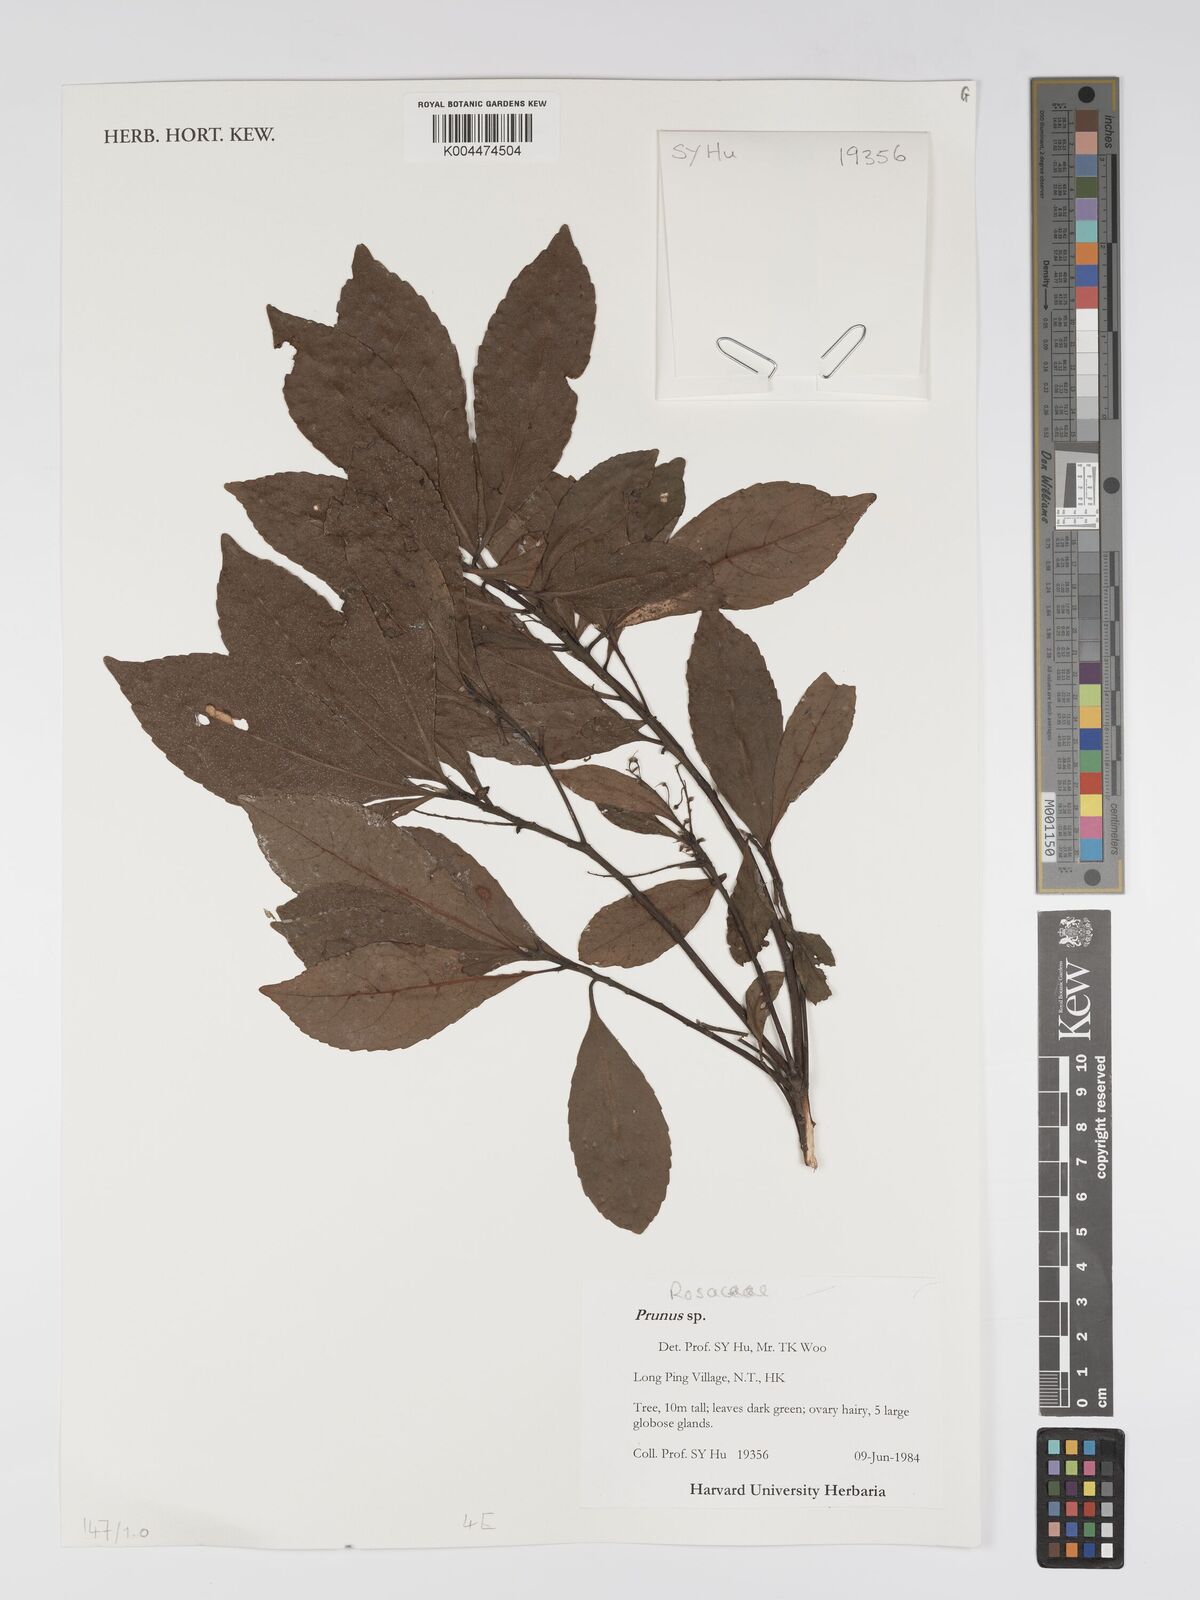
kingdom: Plantae
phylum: Tracheophyta
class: Magnoliopsida
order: Rosales
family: Rosaceae
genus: Prunus
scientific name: Prunus
